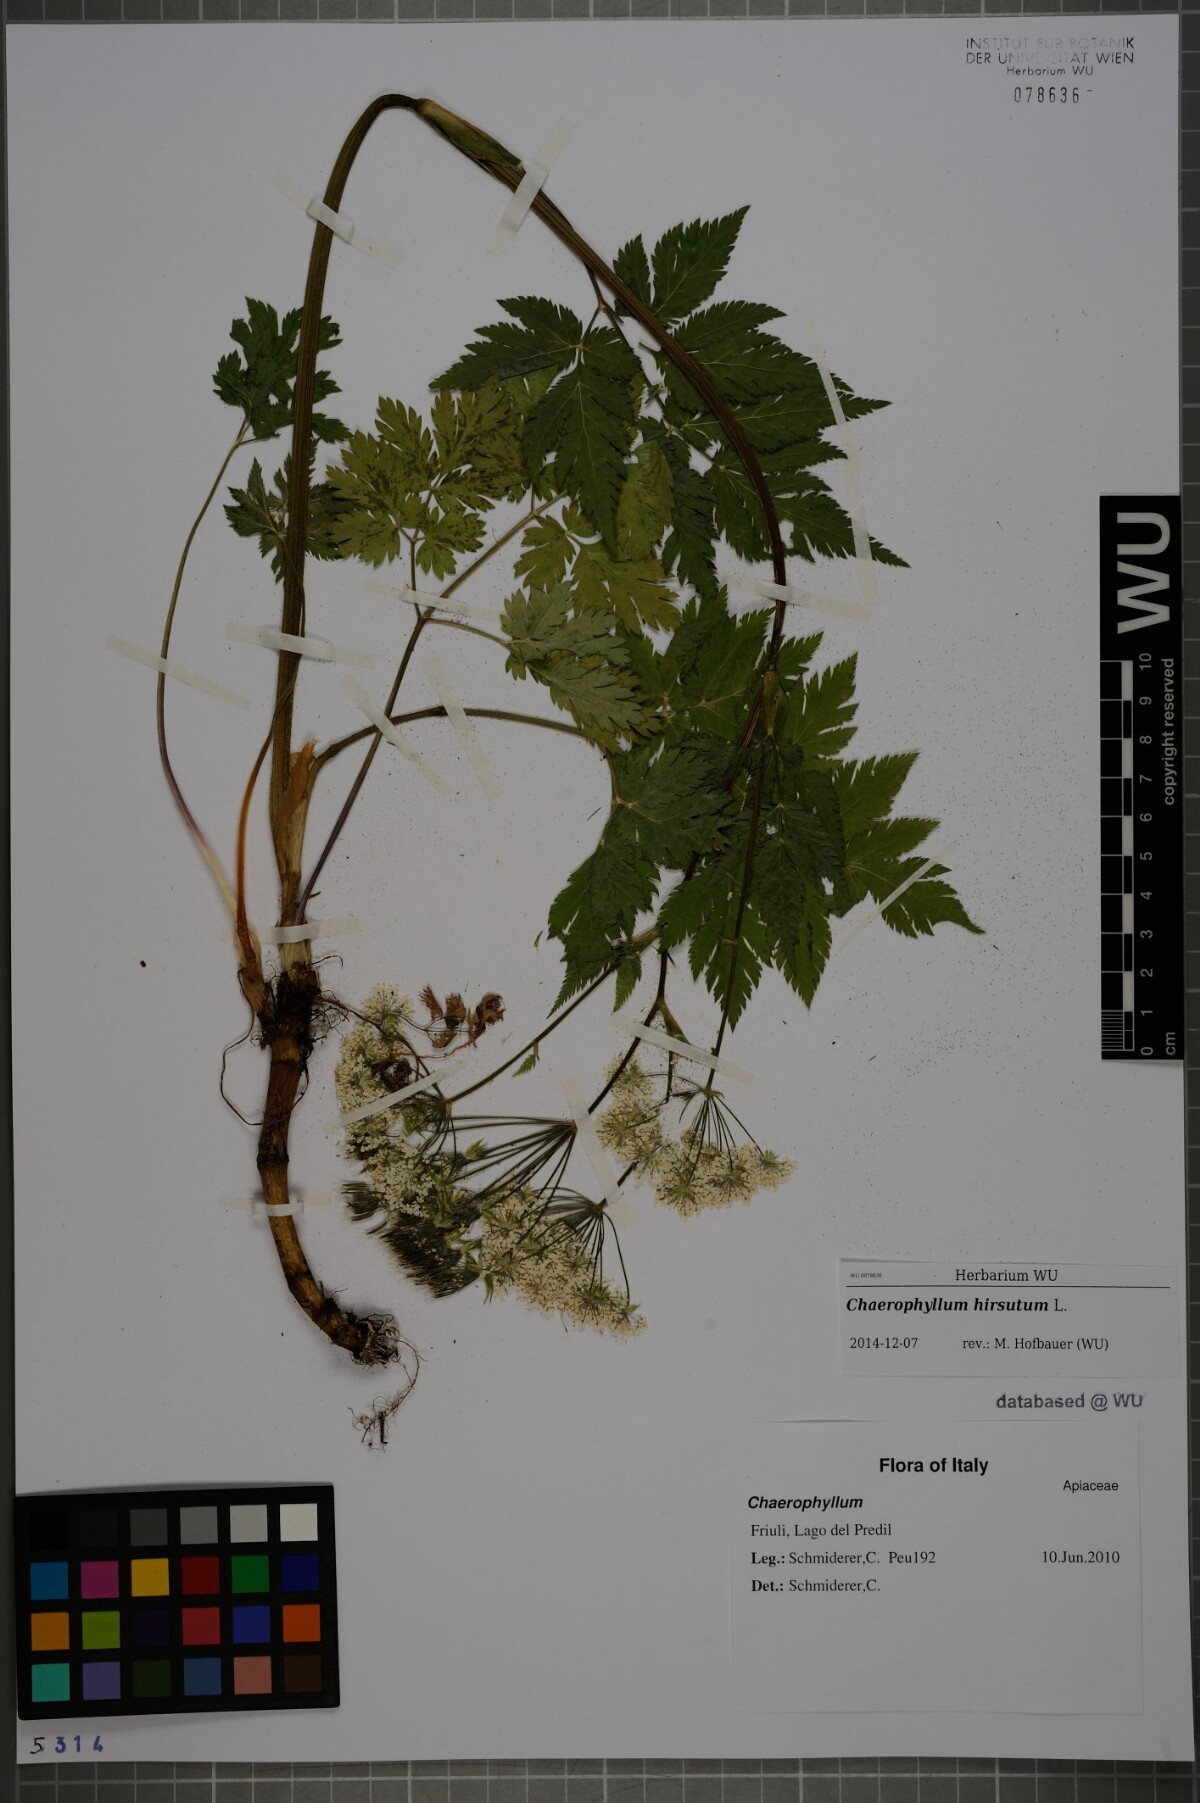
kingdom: Plantae
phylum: Tracheophyta
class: Magnoliopsida
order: Apiales
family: Apiaceae
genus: Chaerophyllum
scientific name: Chaerophyllum hirsutum
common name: Hairy chervil
